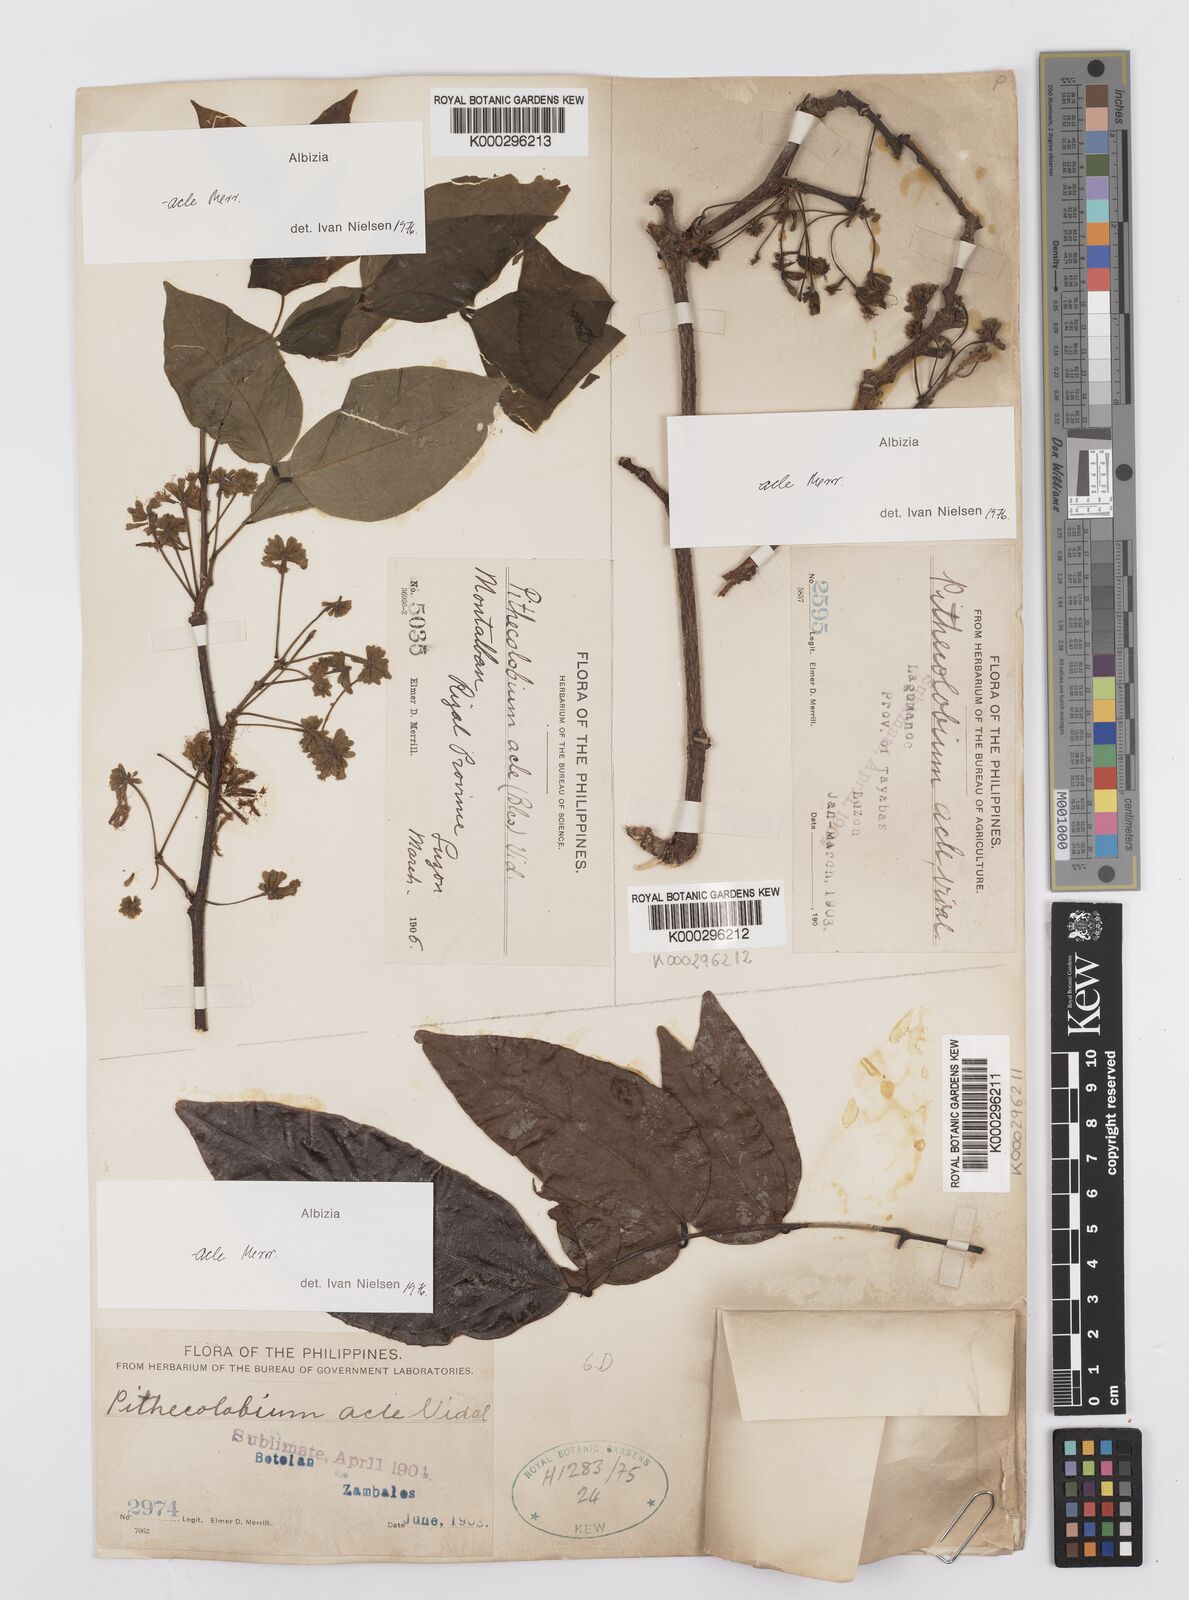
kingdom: Plantae
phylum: Tracheophyta
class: Magnoliopsida
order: Fabales
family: Fabaceae
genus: Albizia
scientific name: Albizia acle
